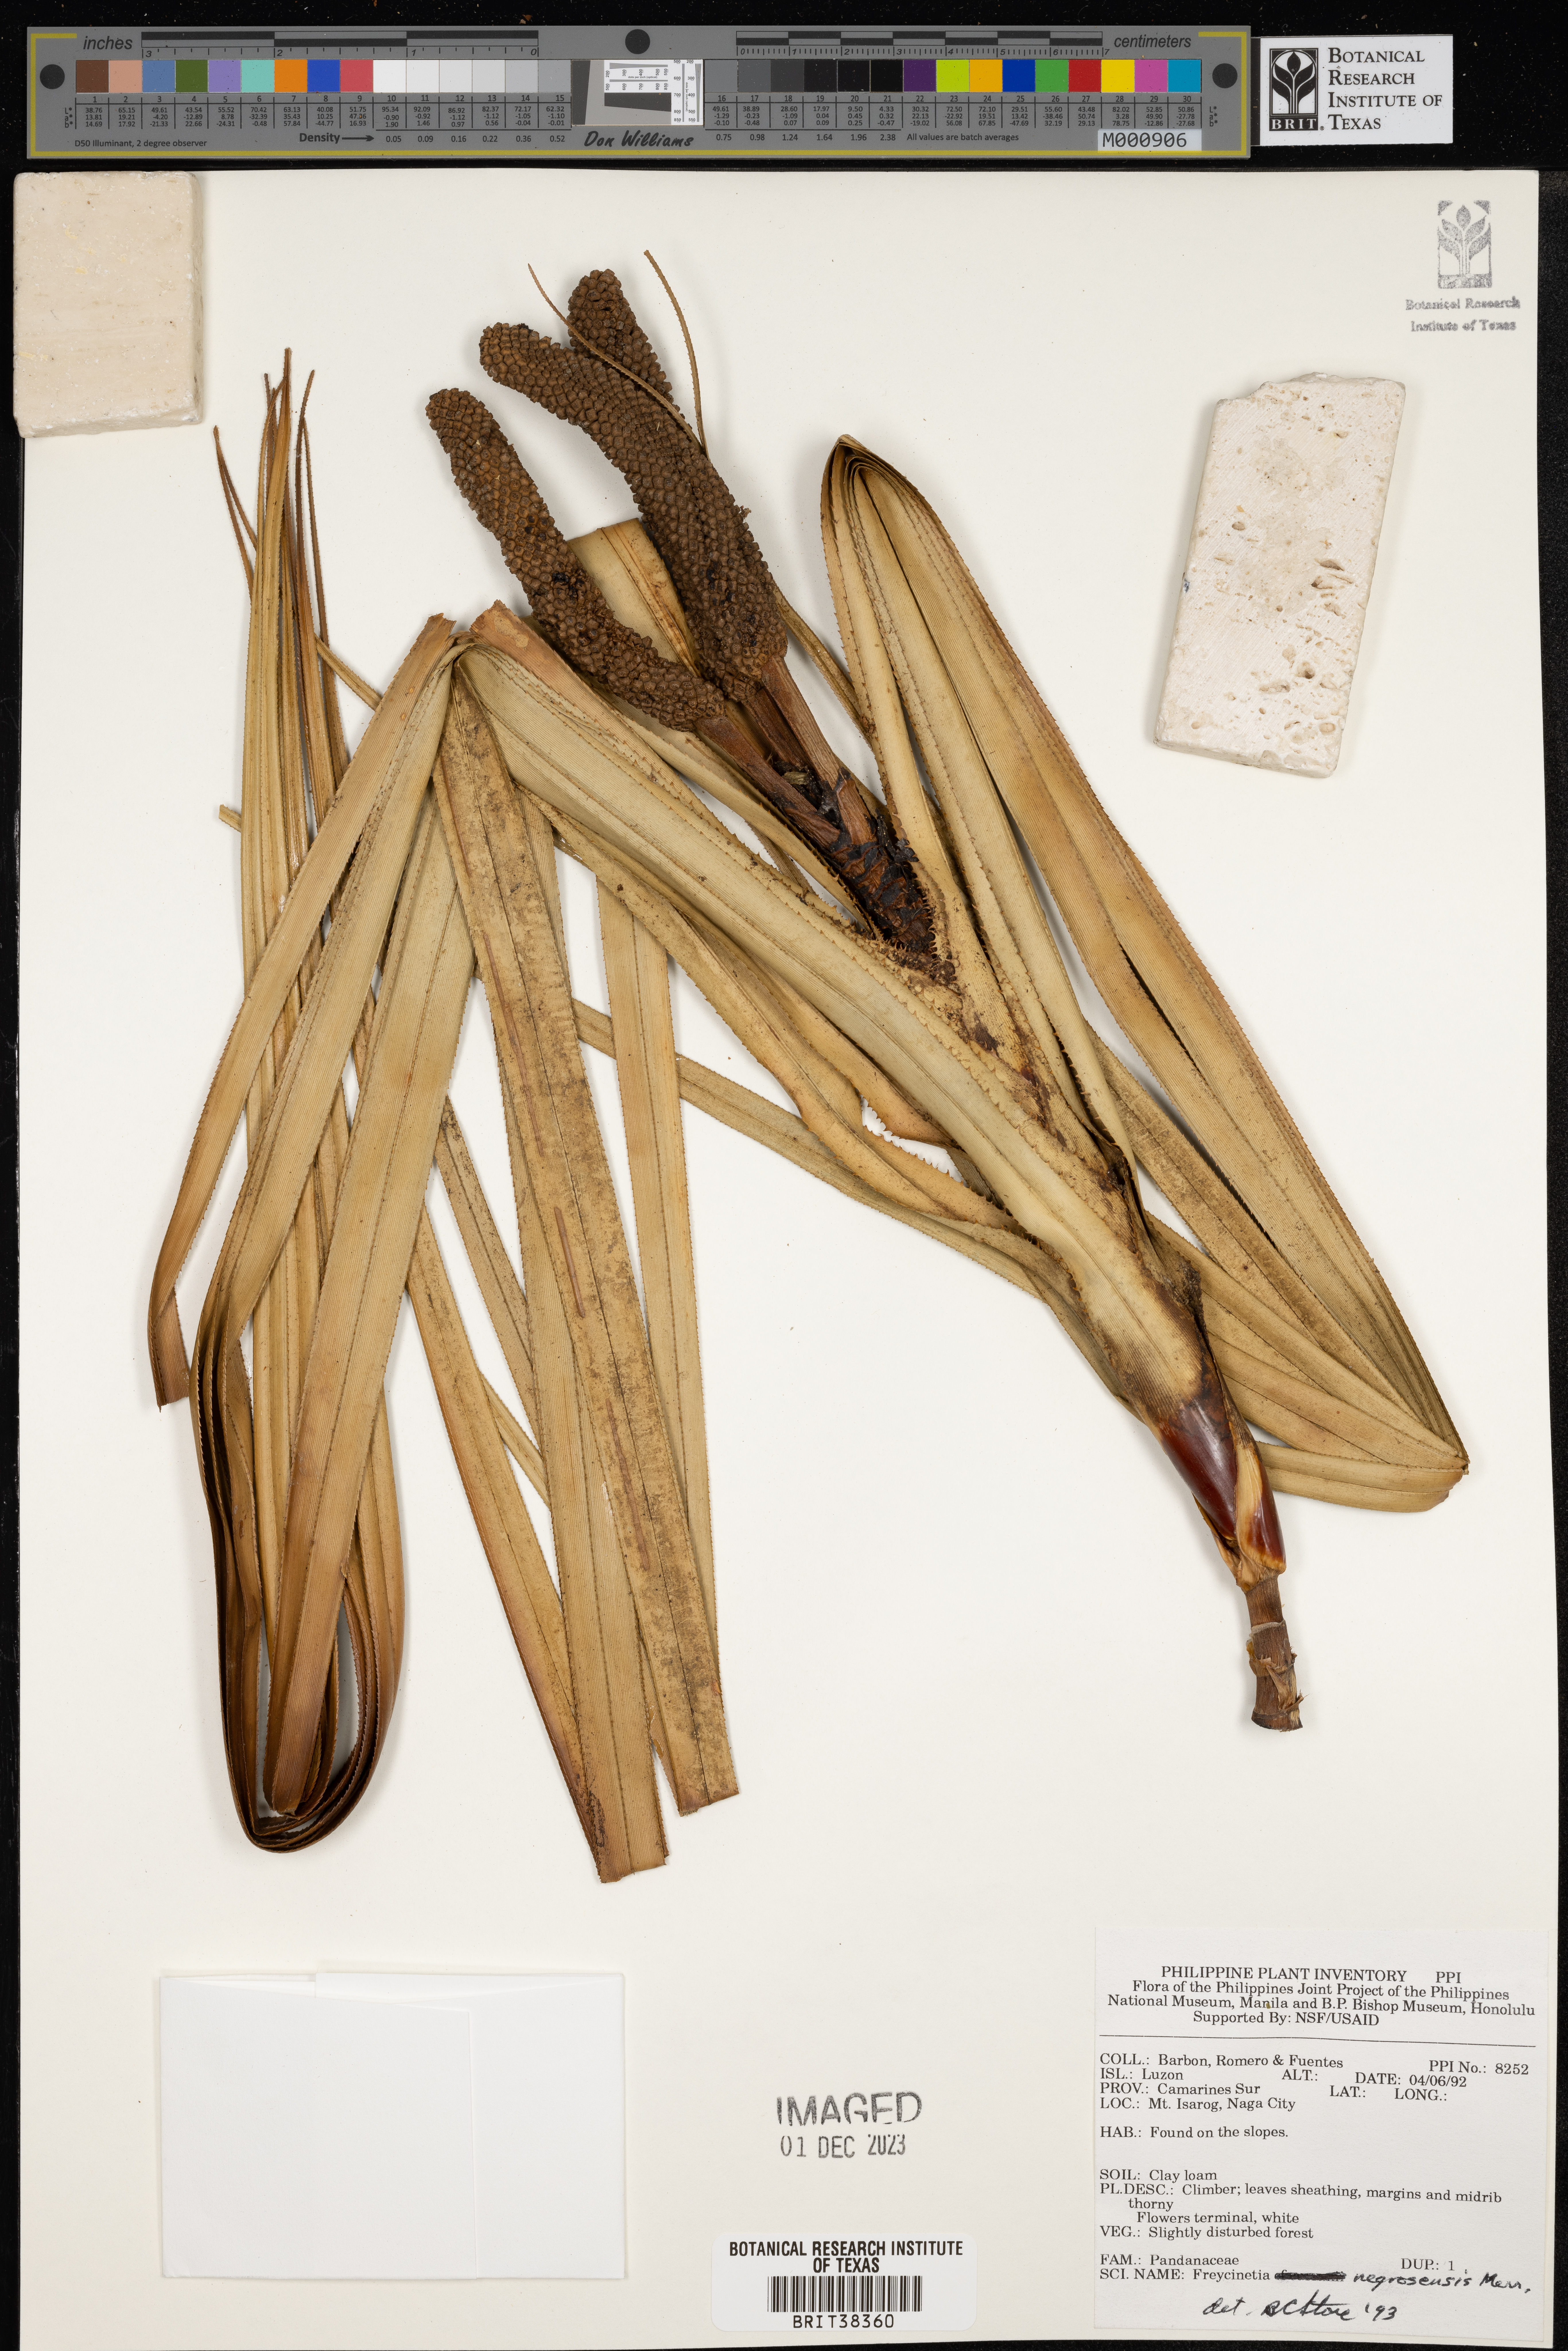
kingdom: Plantae
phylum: Tracheophyta
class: Liliopsida
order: Pandanales
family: Pandanaceae
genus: Freycinetia
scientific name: Freycinetia negrosensis
